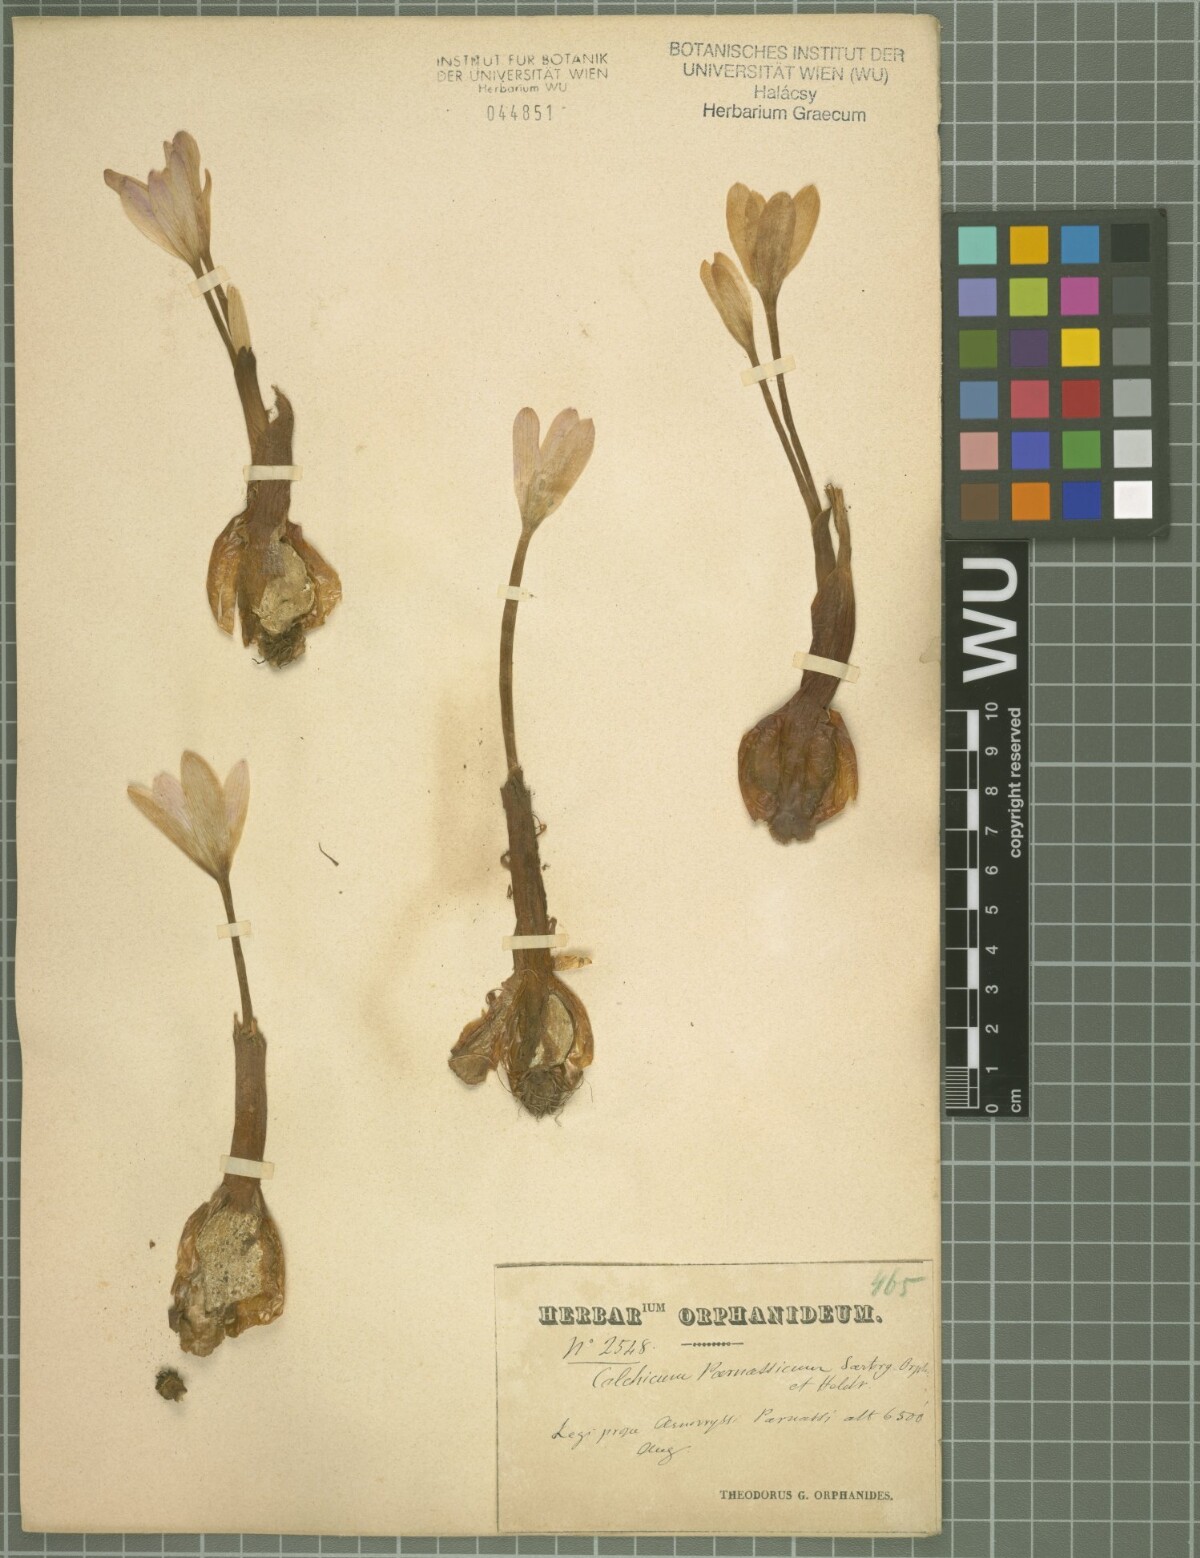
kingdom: Plantae
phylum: Tracheophyta
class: Liliopsida
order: Liliales
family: Colchicaceae
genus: Colchicum
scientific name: Colchicum parnassicum
